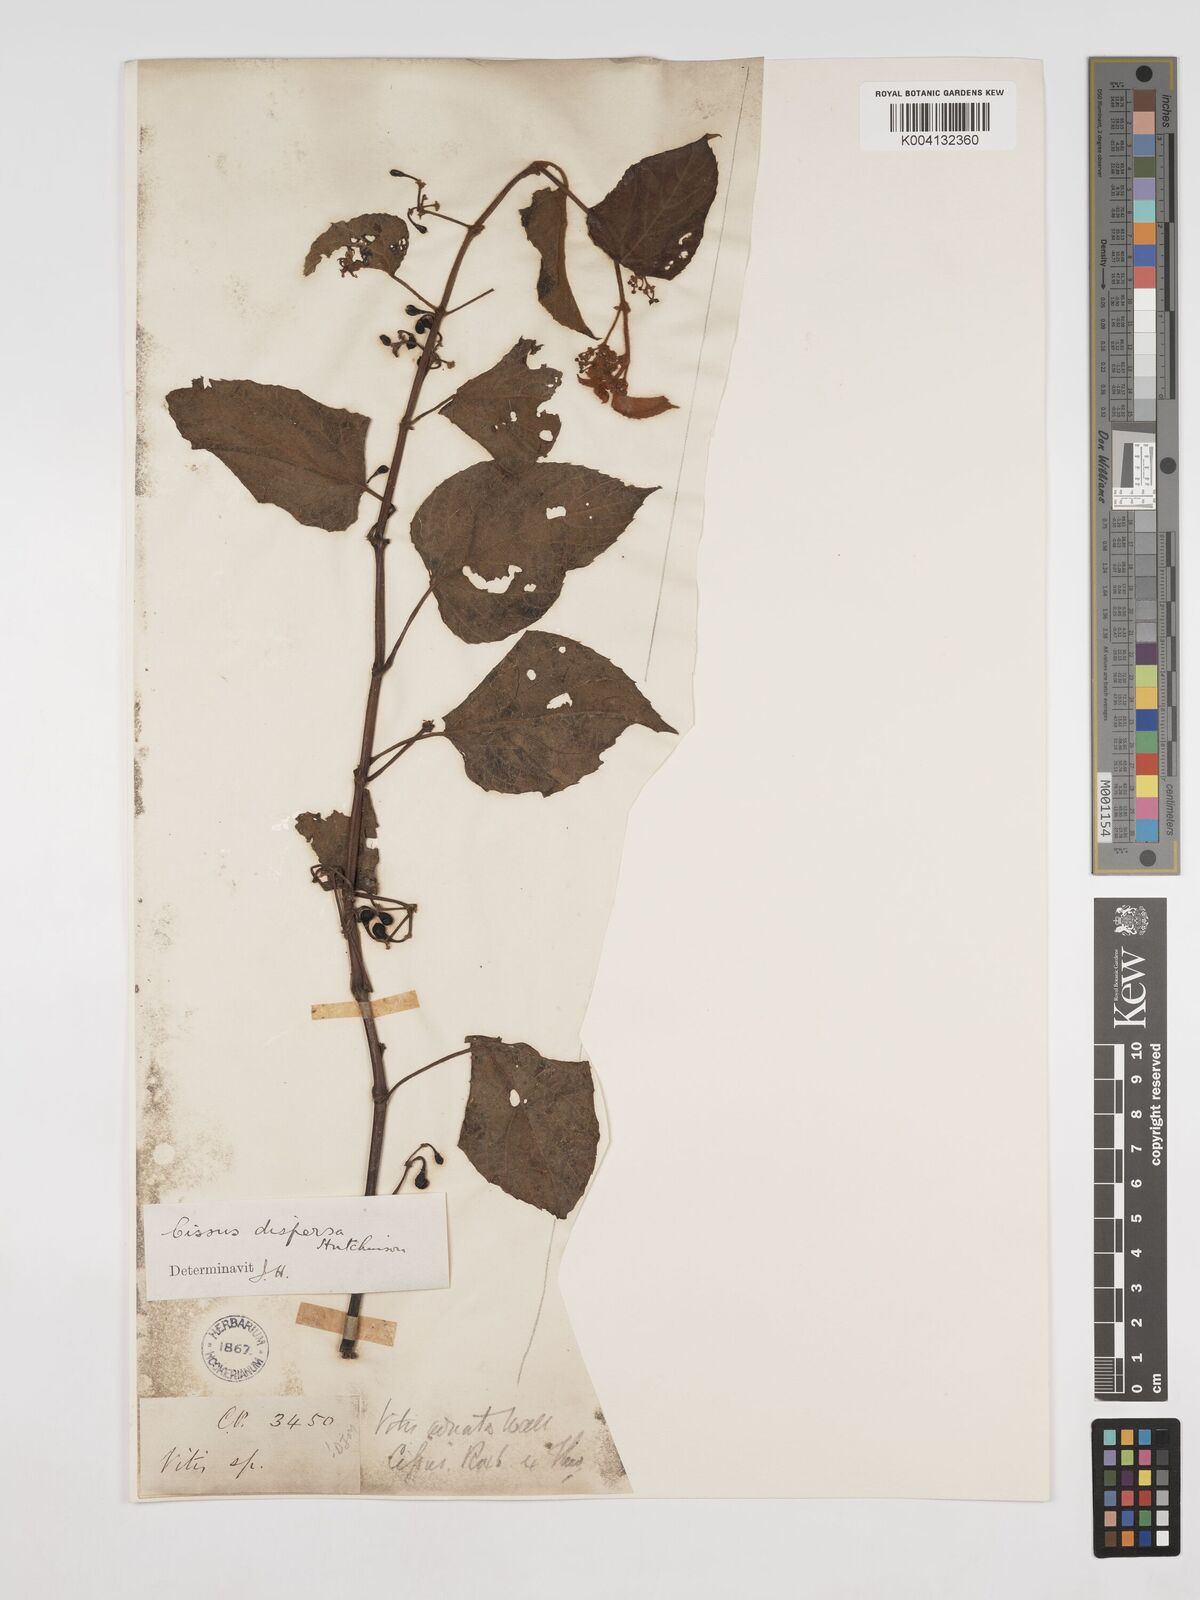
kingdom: Plantae
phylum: Tracheophyta
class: Magnoliopsida
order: Vitales
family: Vitaceae
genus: Cissus
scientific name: Cissus glyptocarpa
